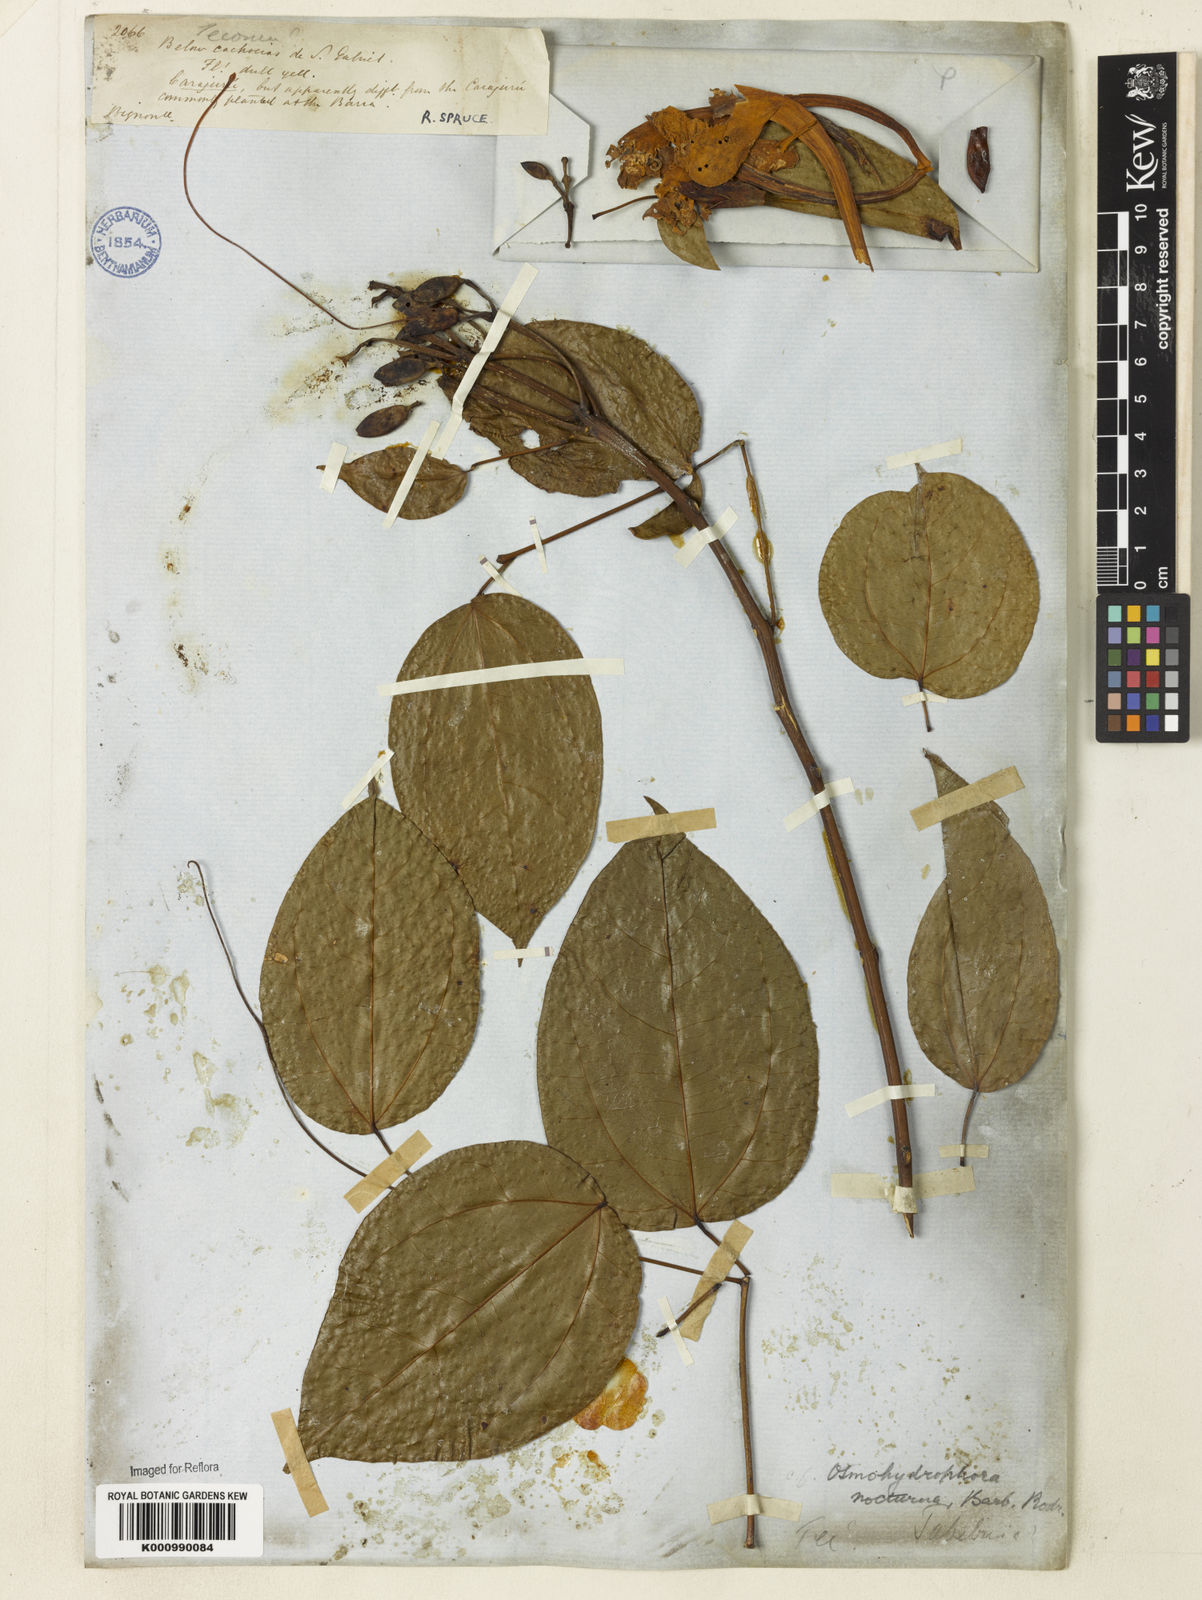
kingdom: Plantae
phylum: Tracheophyta
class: Magnoliopsida
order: Lamiales
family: Bignoniaceae
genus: Bignonia
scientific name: Bignonia nocturna
